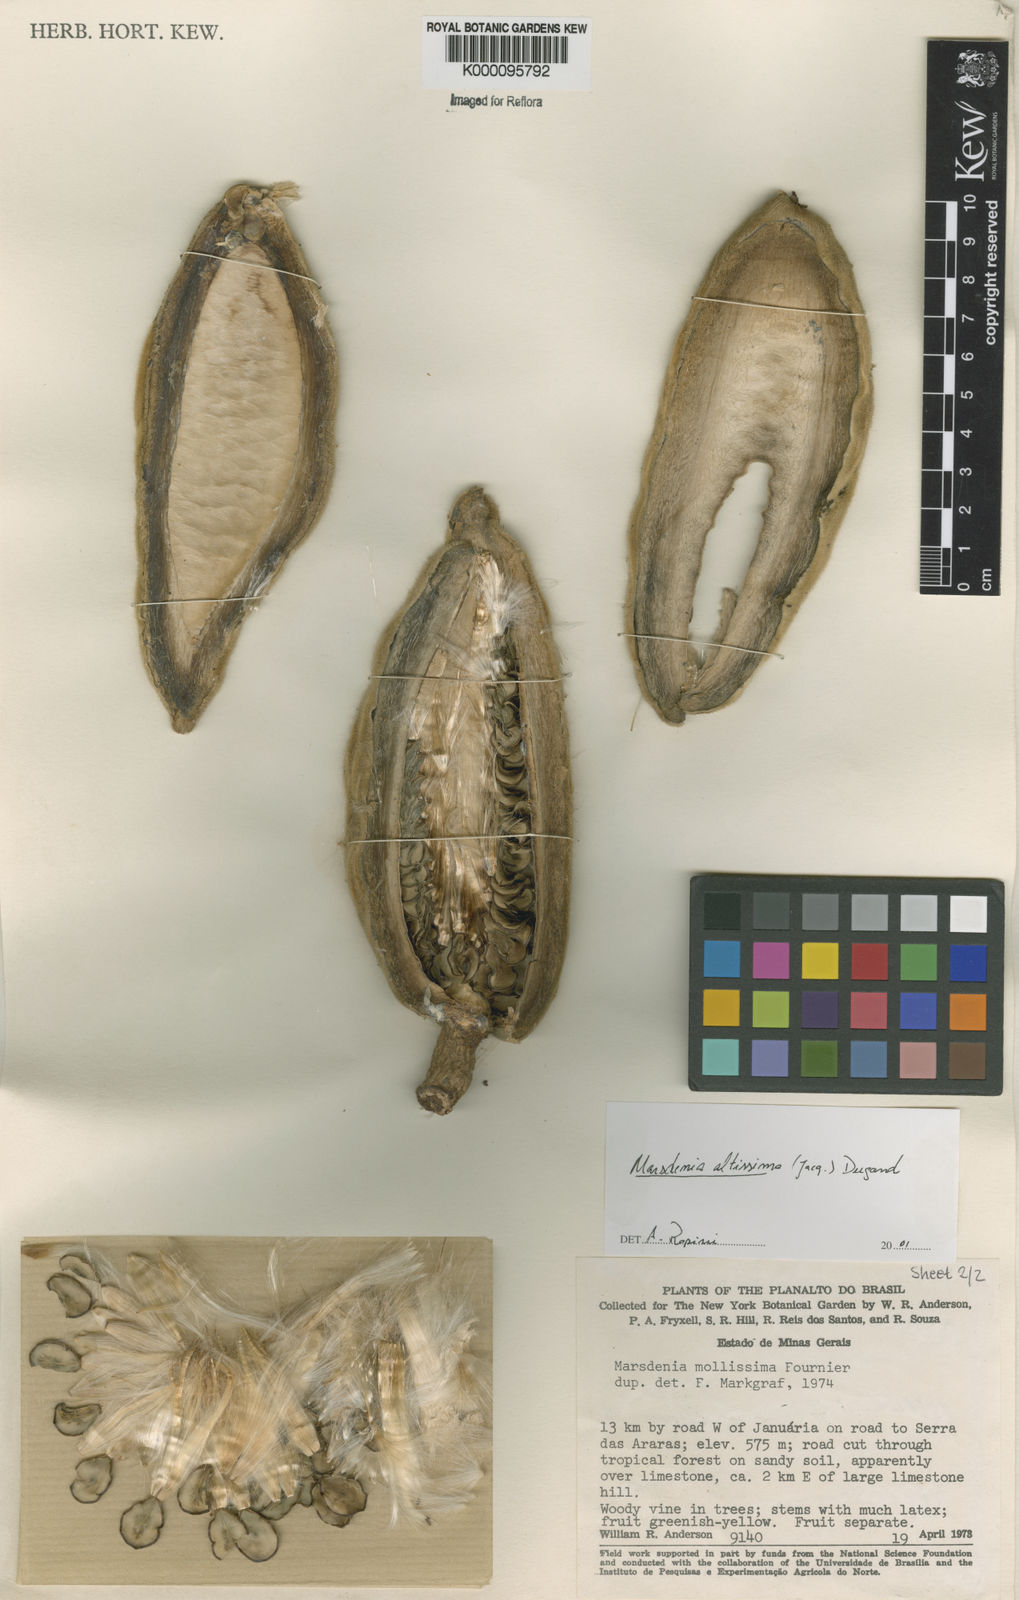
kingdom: Plantae
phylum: Tracheophyta
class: Magnoliopsida
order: Gentianales
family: Apocynaceae
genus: Ruehssia
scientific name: Ruehssia altissima
